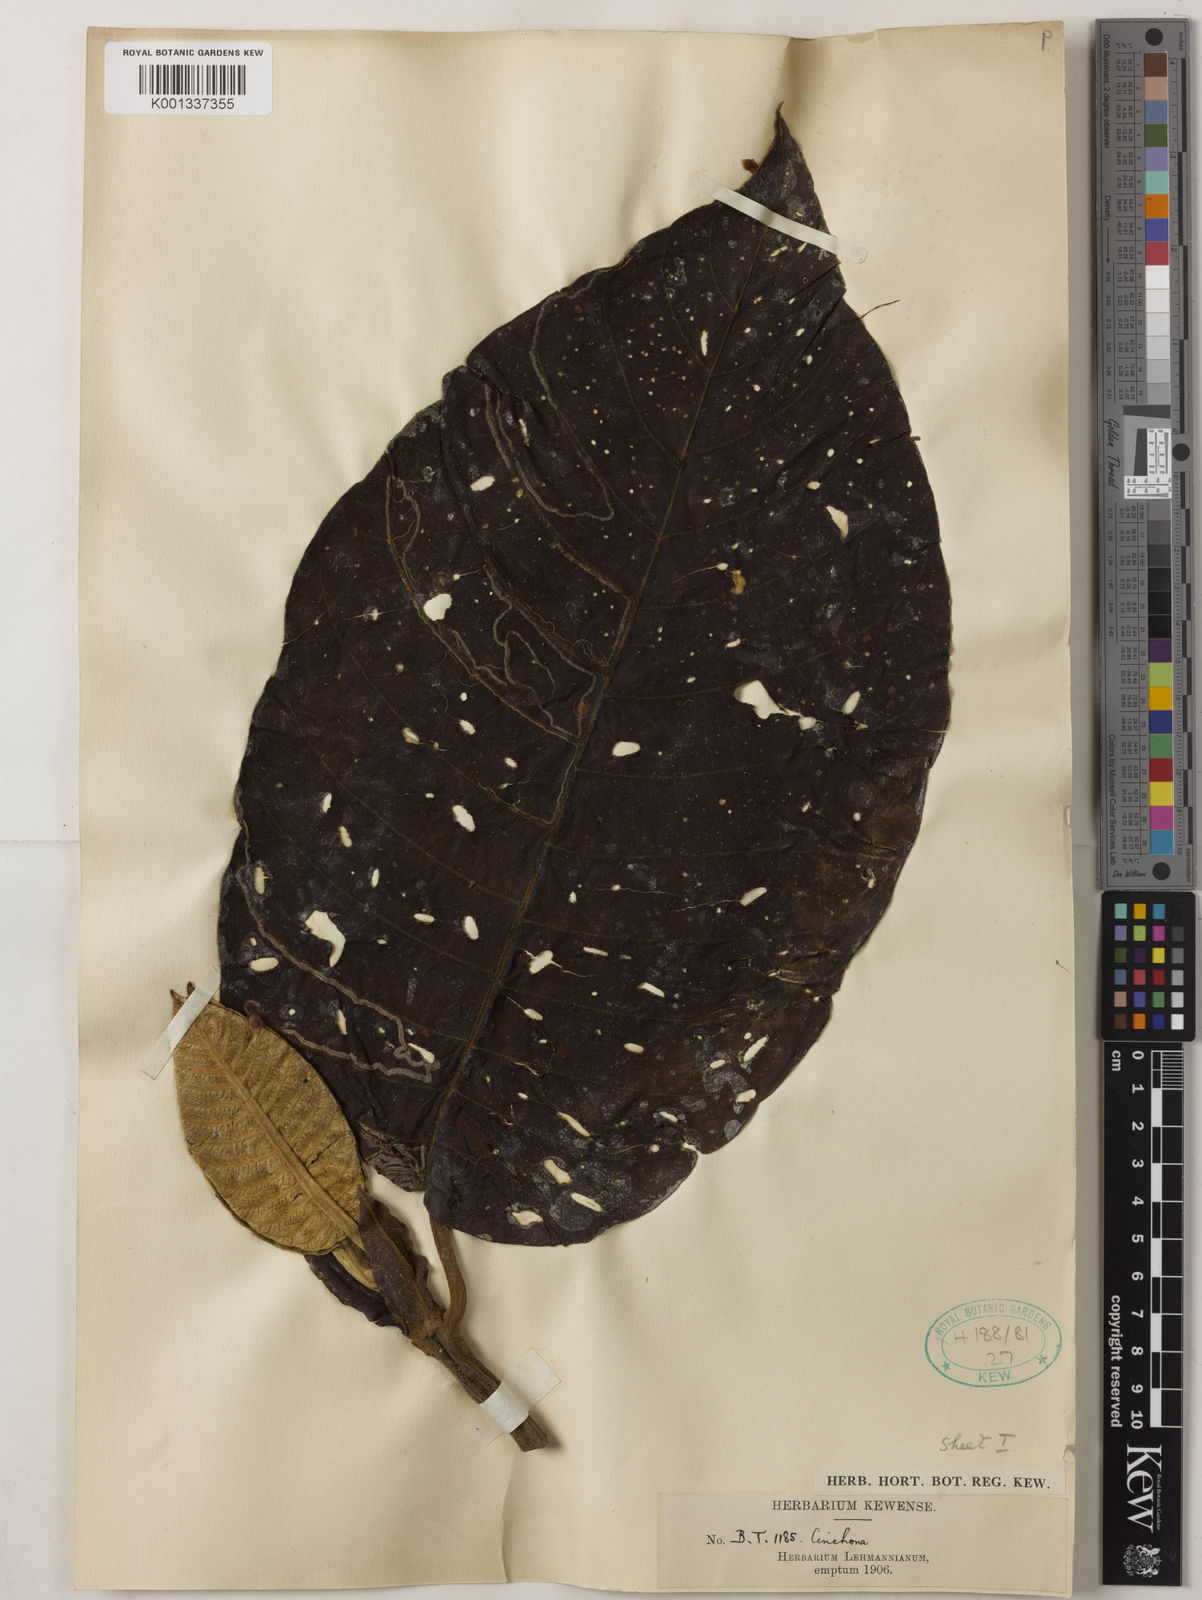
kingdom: Plantae
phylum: Tracheophyta
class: Magnoliopsida
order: Gentianales
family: Rubiaceae
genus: Cinchona
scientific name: Cinchona
